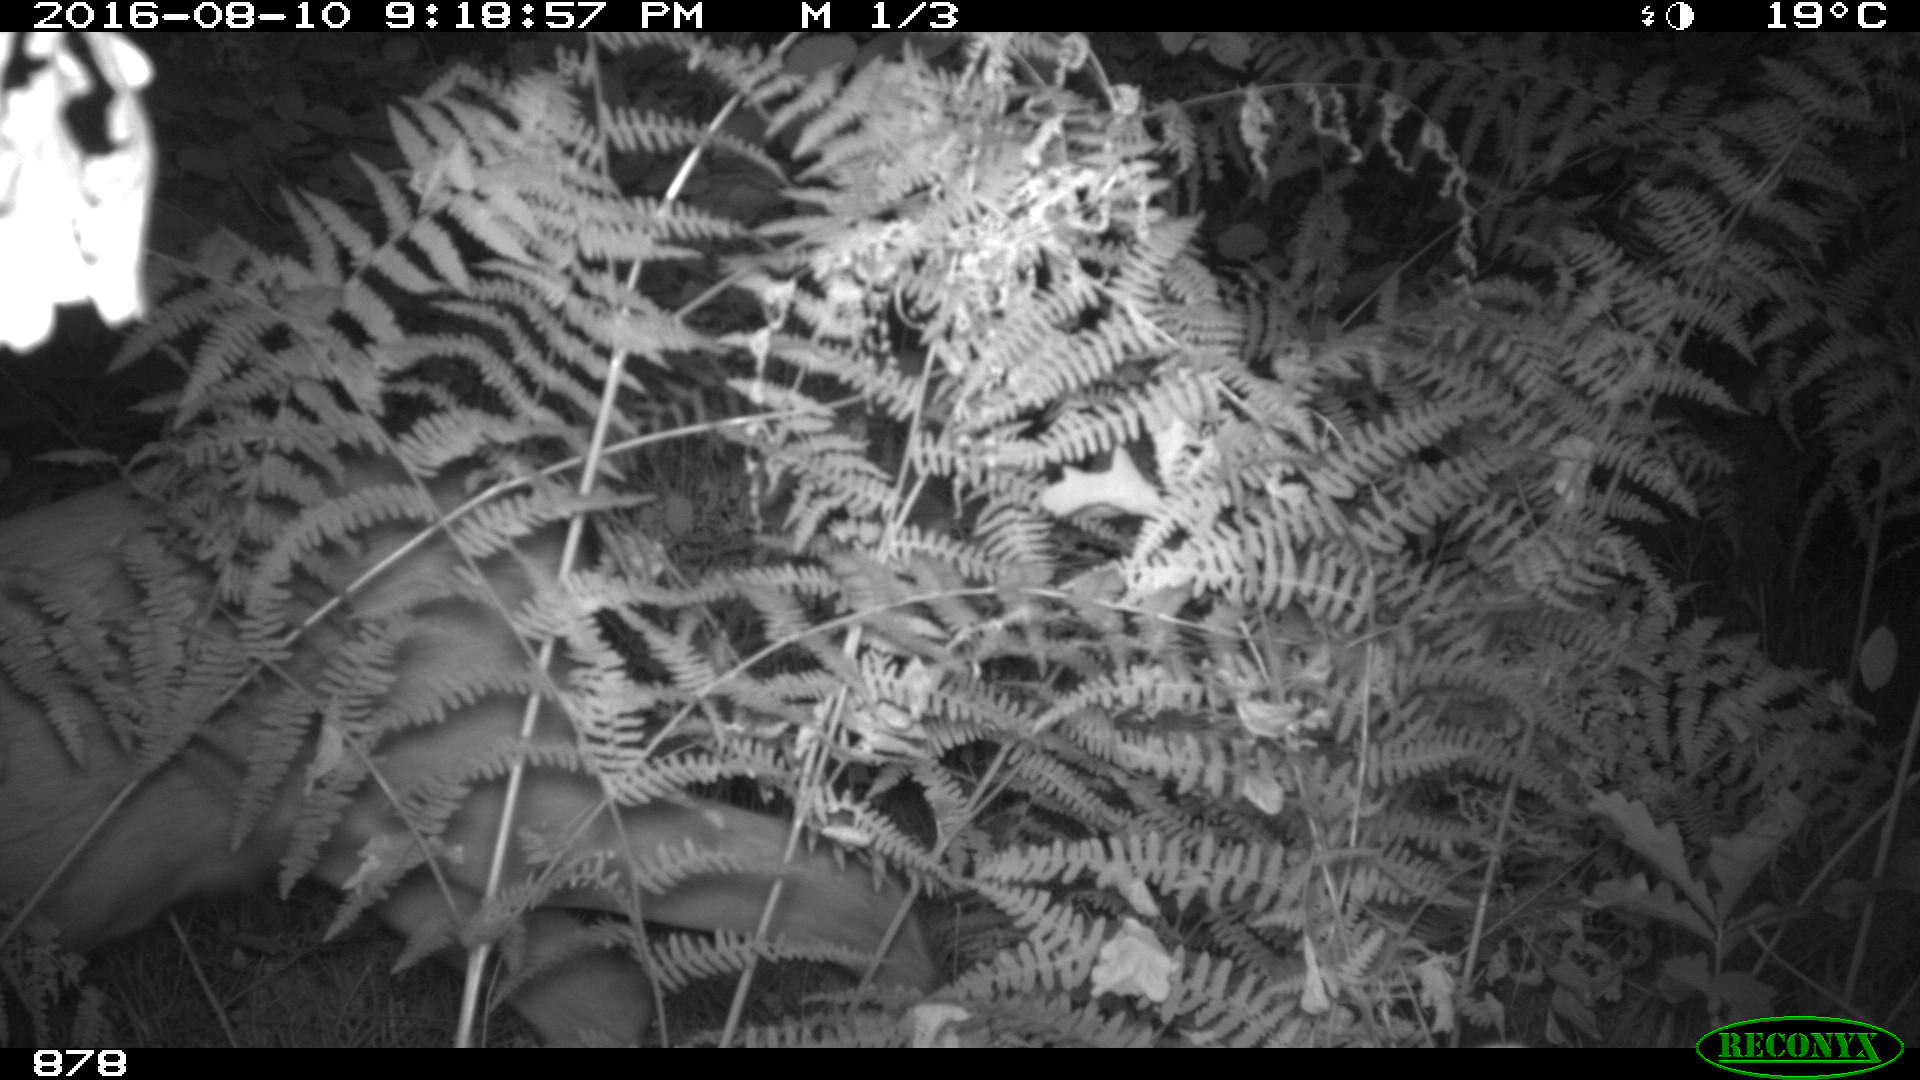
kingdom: Animalia
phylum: Chordata
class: Mammalia
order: Artiodactyla
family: Cervidae
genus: Capreolus
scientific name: Capreolus capreolus
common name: Western roe deer
